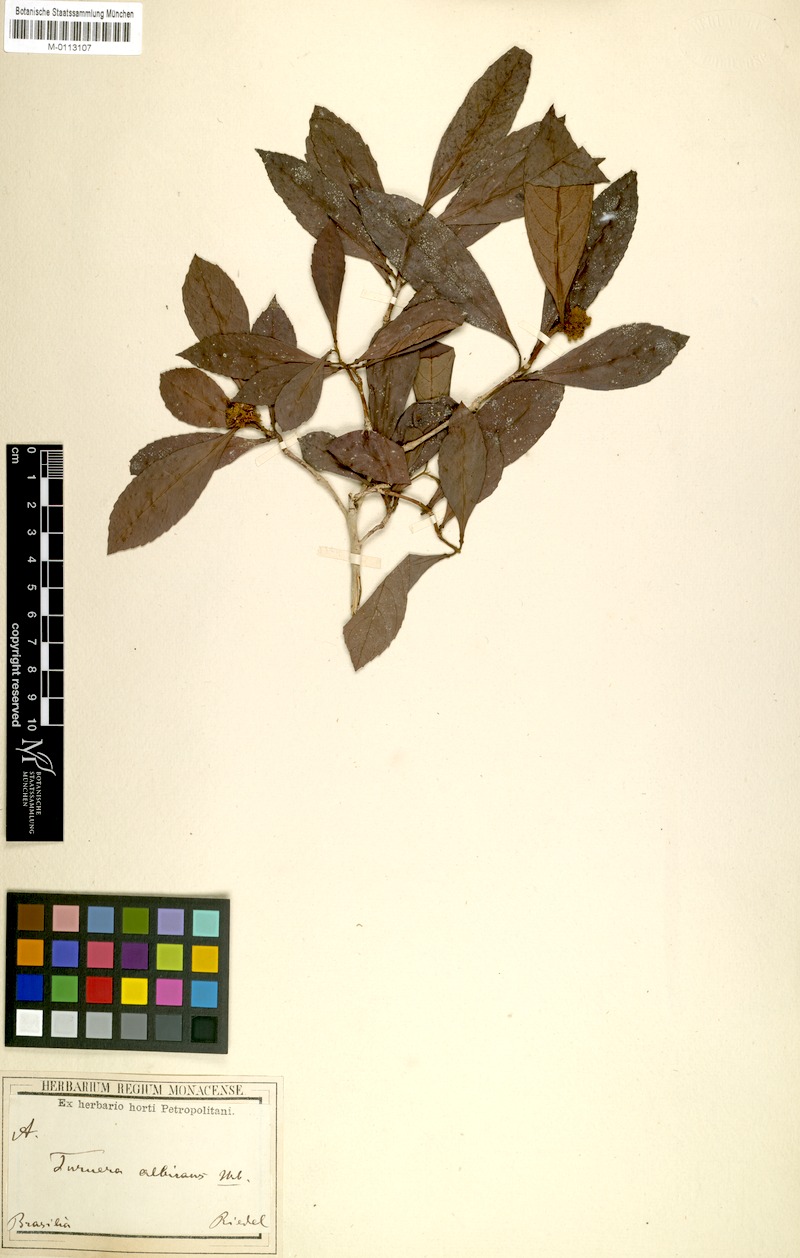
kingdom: Plantae
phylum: Tracheophyta
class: Magnoliopsida
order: Malpighiales
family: Turneraceae
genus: Oxossia
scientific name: Oxossia albicans
